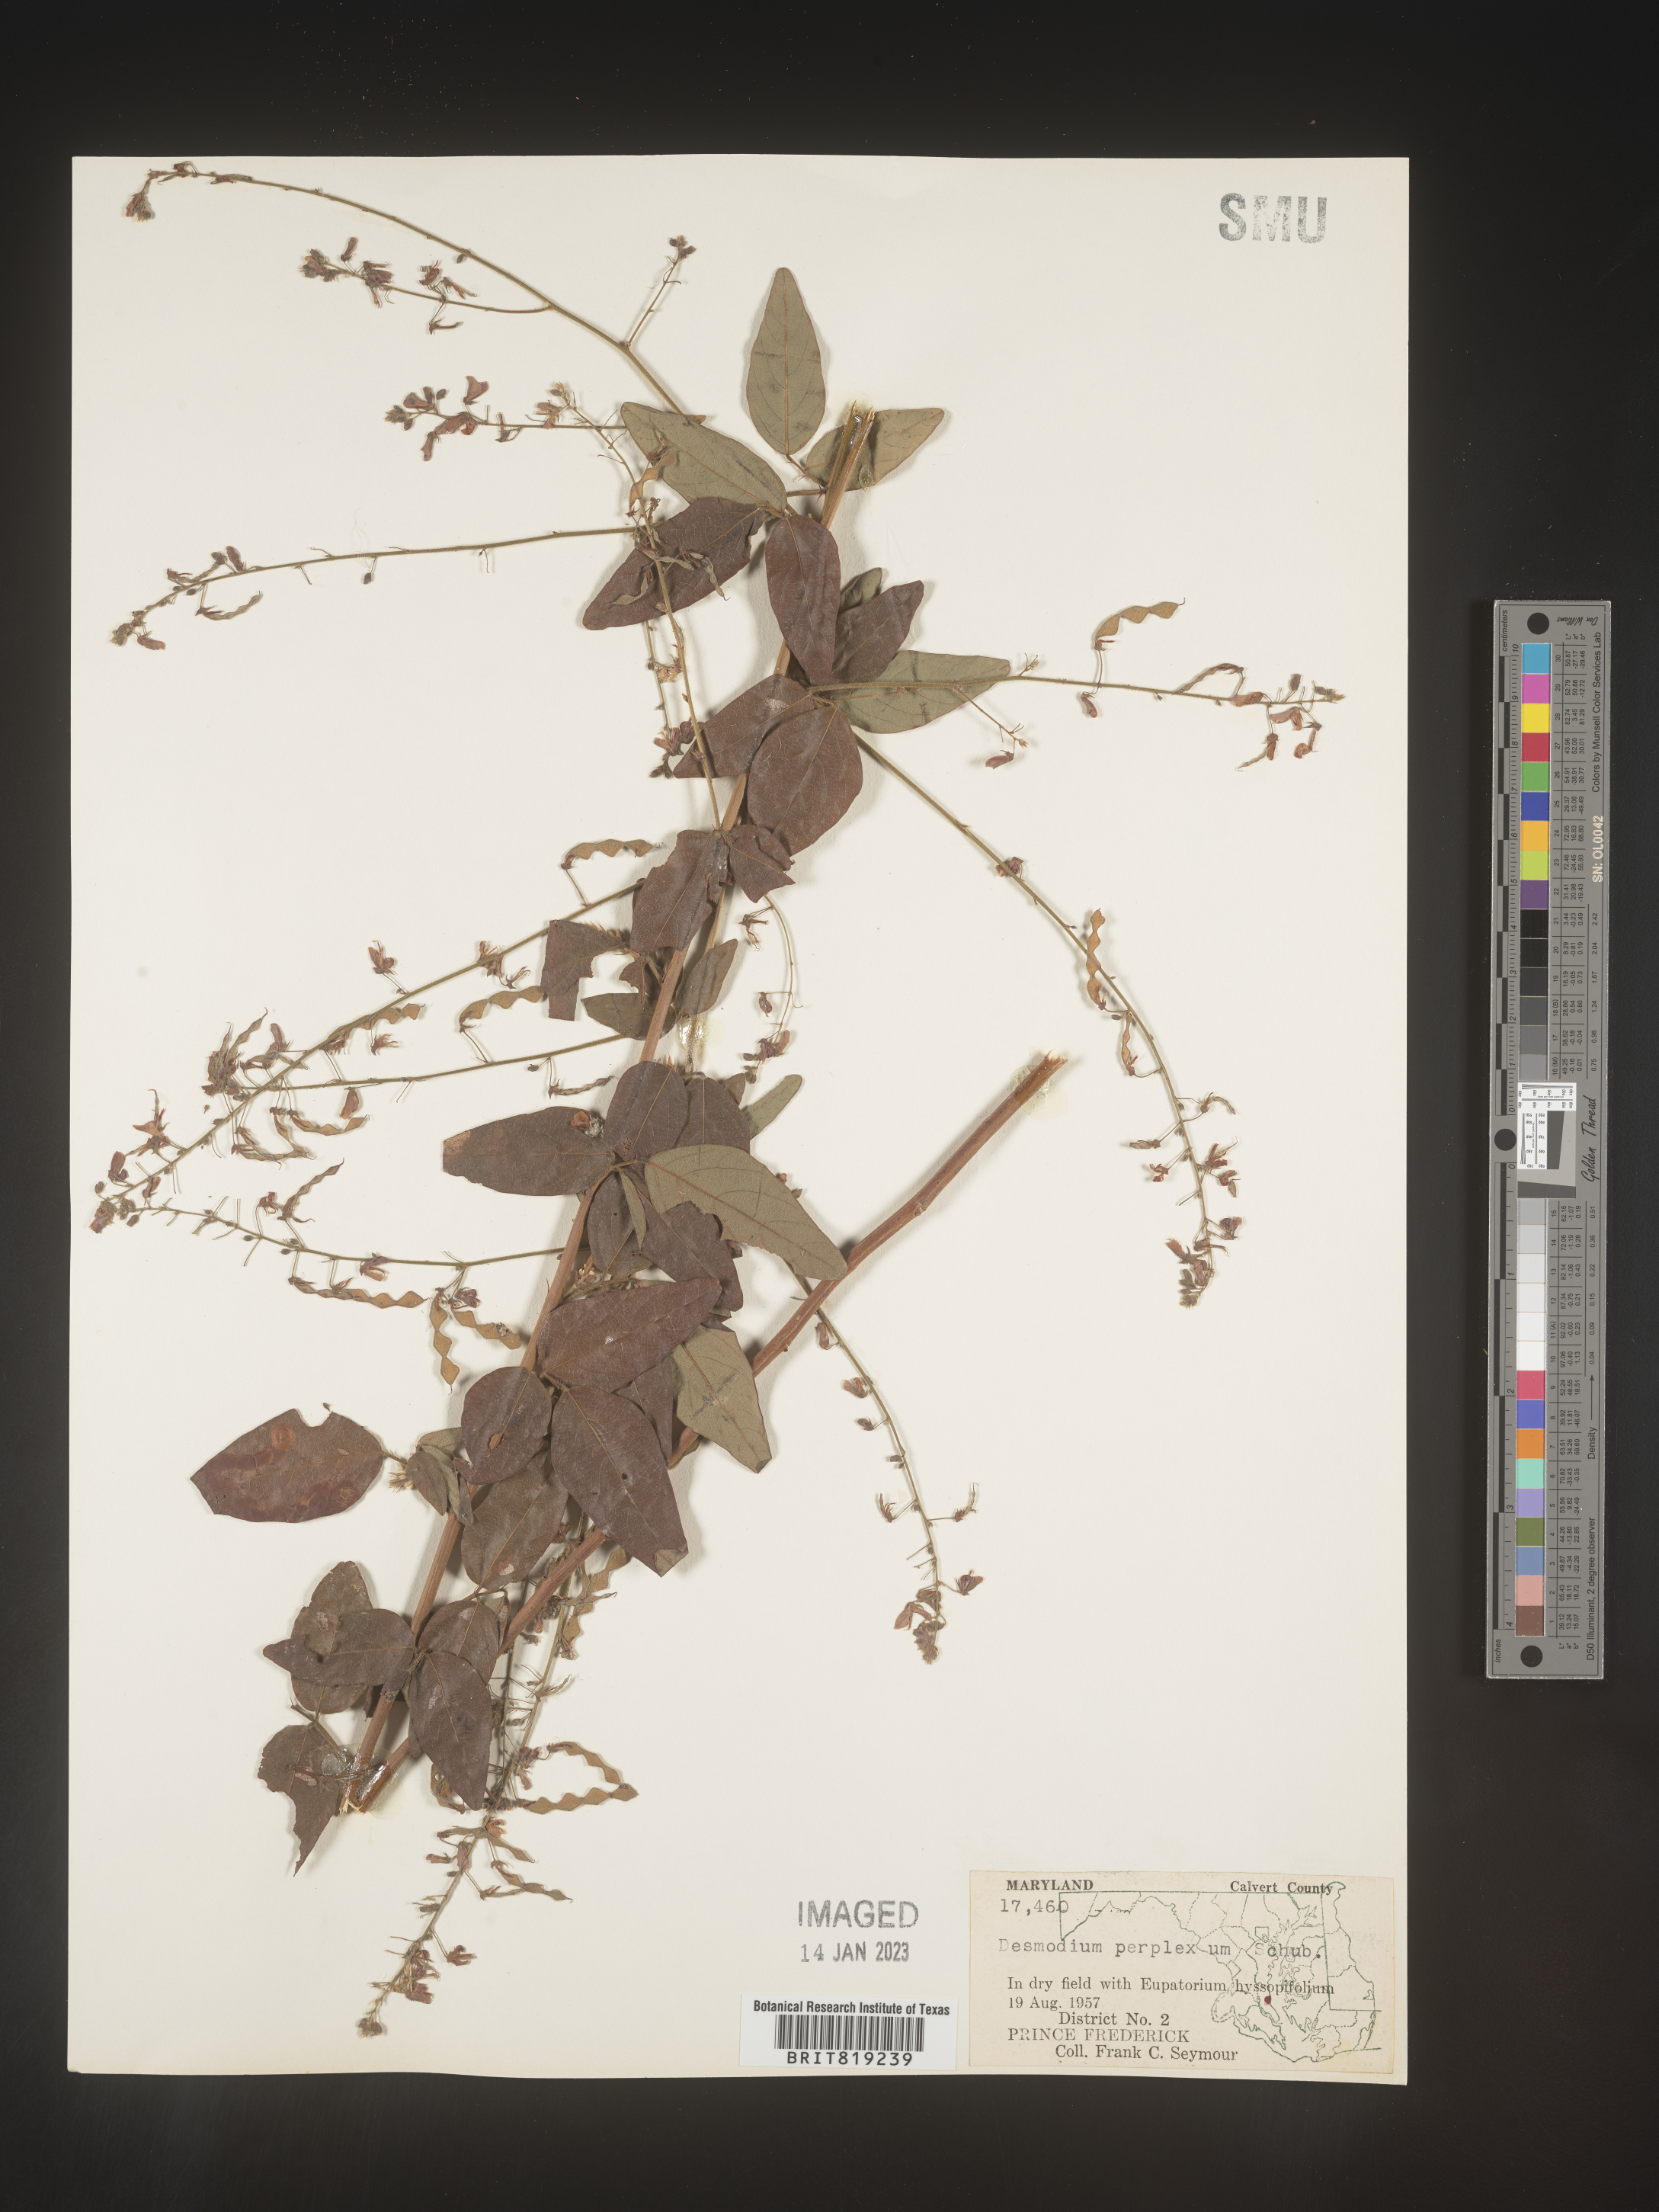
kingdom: Plantae
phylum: Tracheophyta
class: Magnoliopsida
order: Fabales
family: Fabaceae
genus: Desmodium
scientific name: Desmodium perplexum
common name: Perplexed tick trefoil
